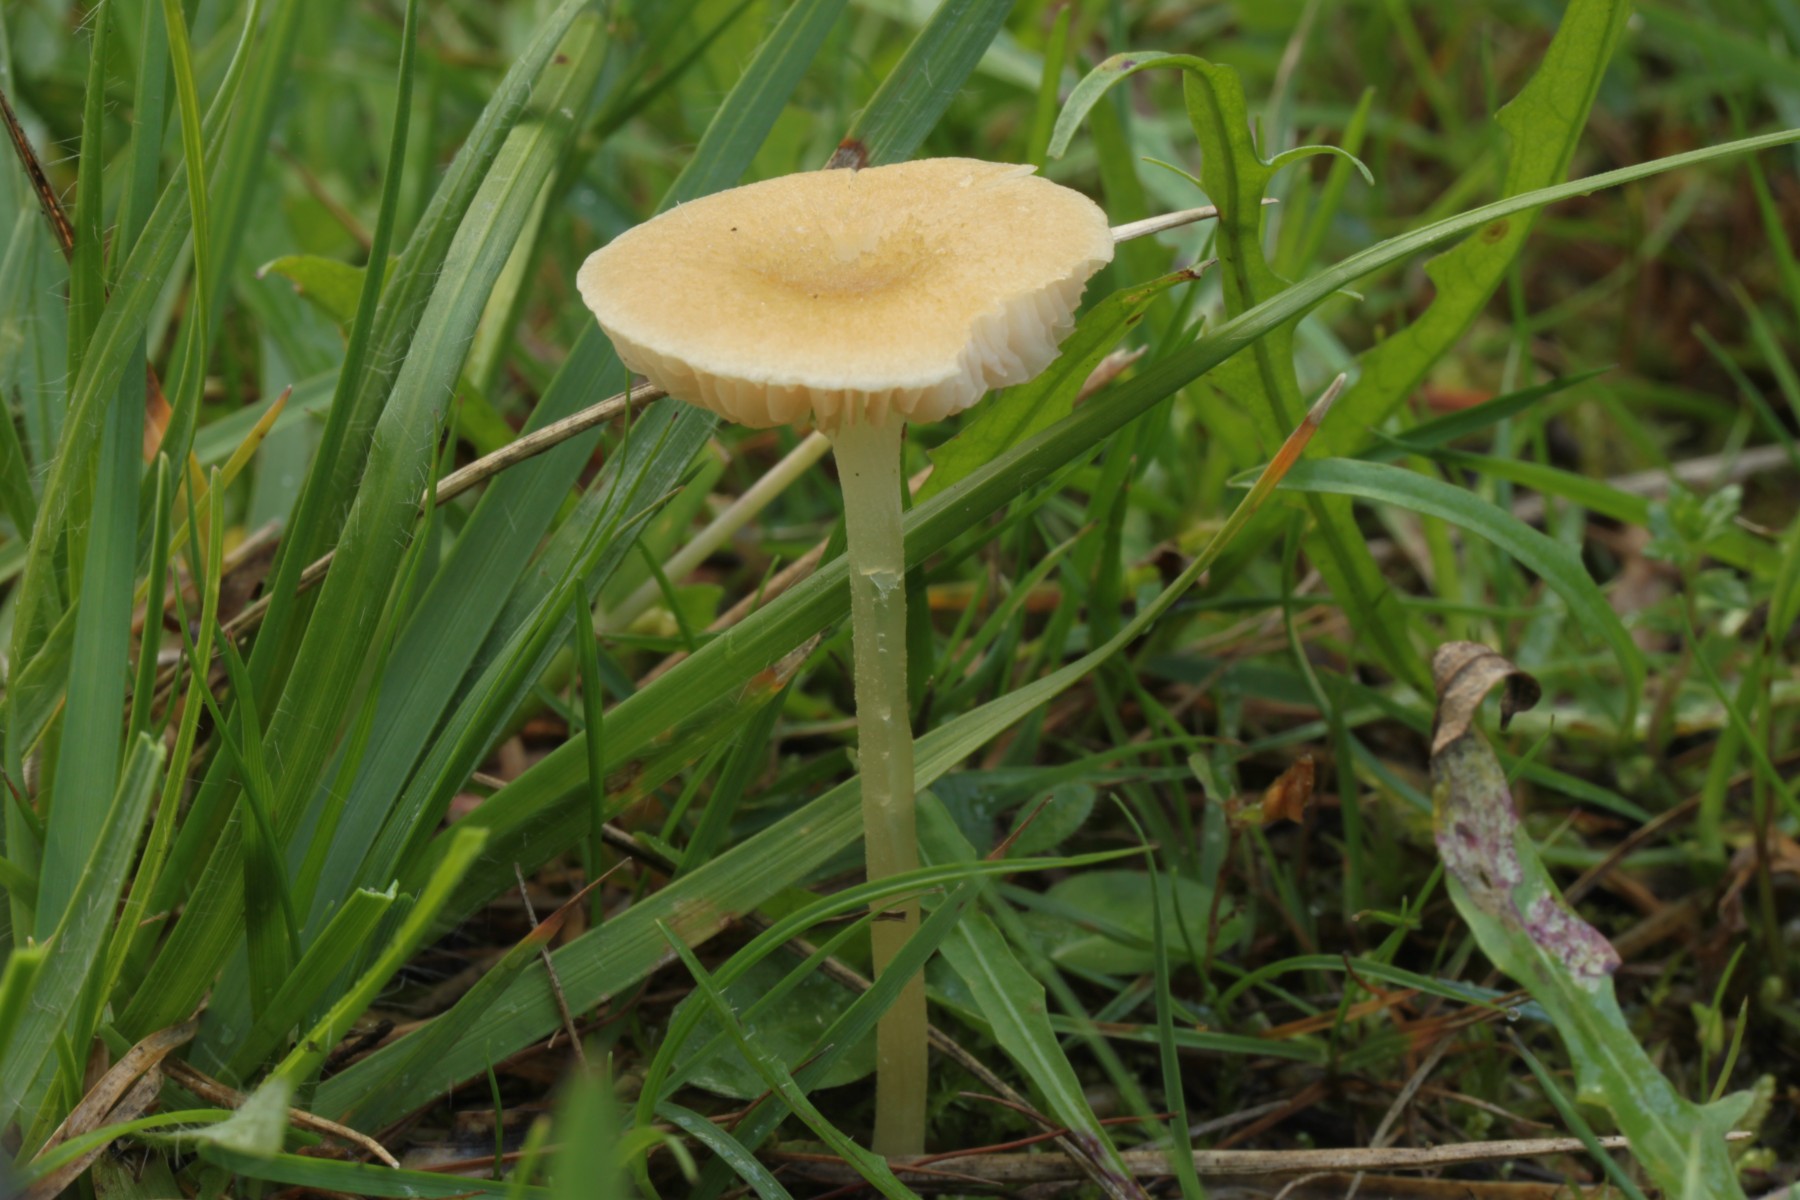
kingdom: Fungi
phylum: Basidiomycota
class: Agaricomycetes
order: Agaricales
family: Entolomataceae
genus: Entoloma
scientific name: Entoloma sericellum
